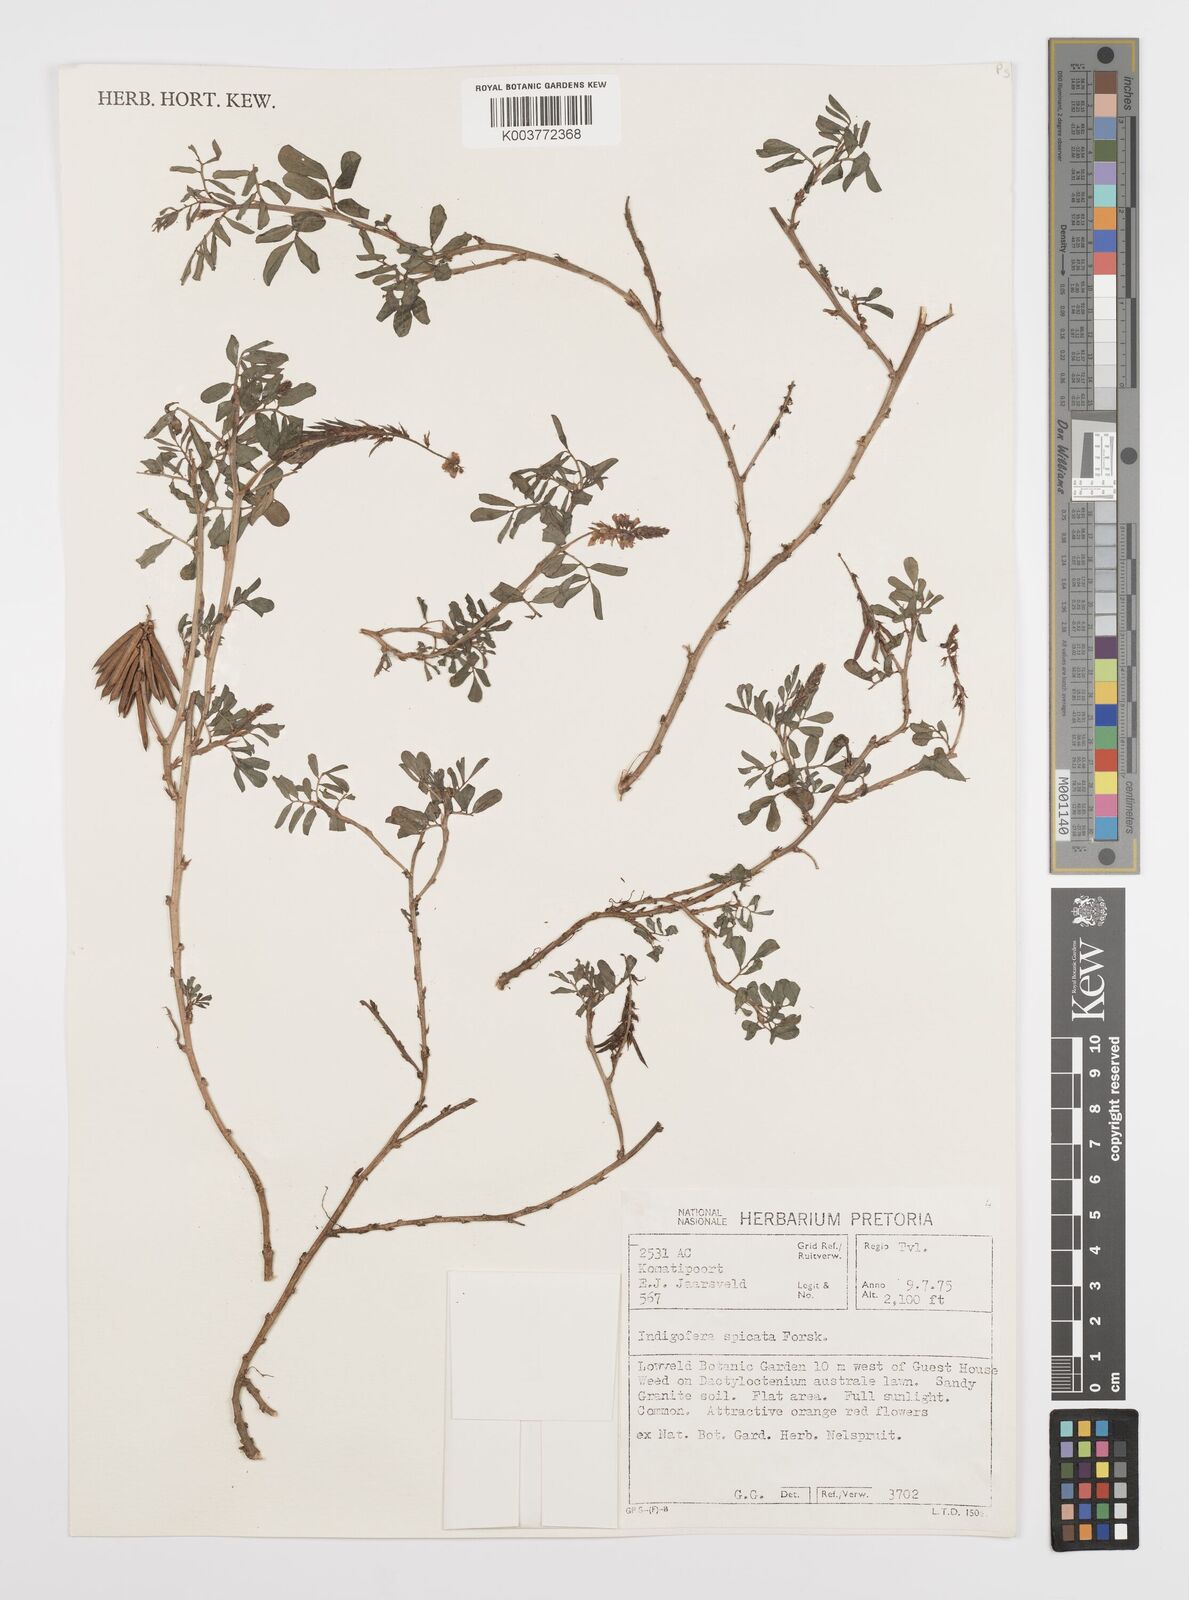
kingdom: Plantae
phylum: Tracheophyta
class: Magnoliopsida
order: Fabales
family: Fabaceae
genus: Indigofera
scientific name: Indigofera hendecaphylla
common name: Trailing indigo
